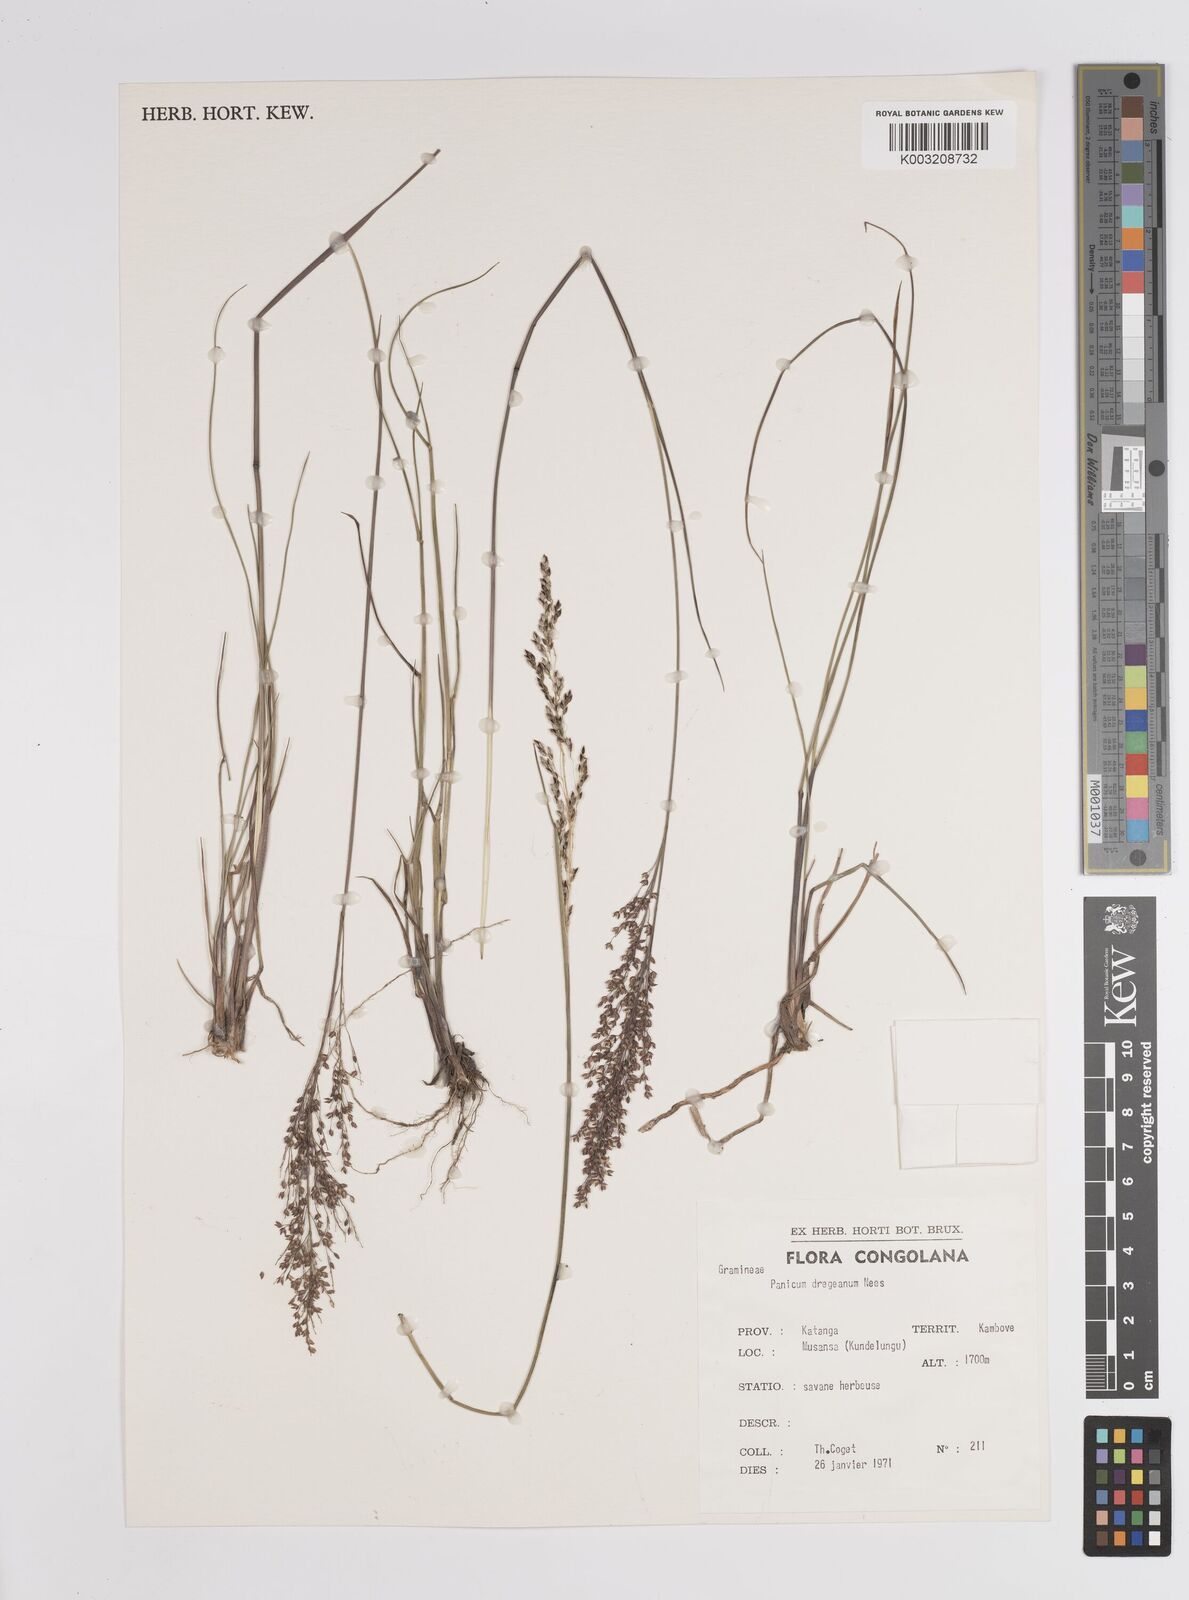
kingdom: Plantae
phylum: Tracheophyta
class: Liliopsida
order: Poales
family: Poaceae
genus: Panicum
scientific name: Panicum dregeanum
